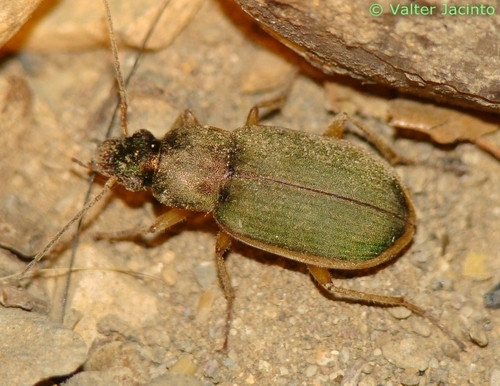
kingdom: Animalia
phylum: Arthropoda
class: Insecta
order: Coleoptera
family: Carabidae
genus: Chlaenius
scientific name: Chlaenius olivieri
